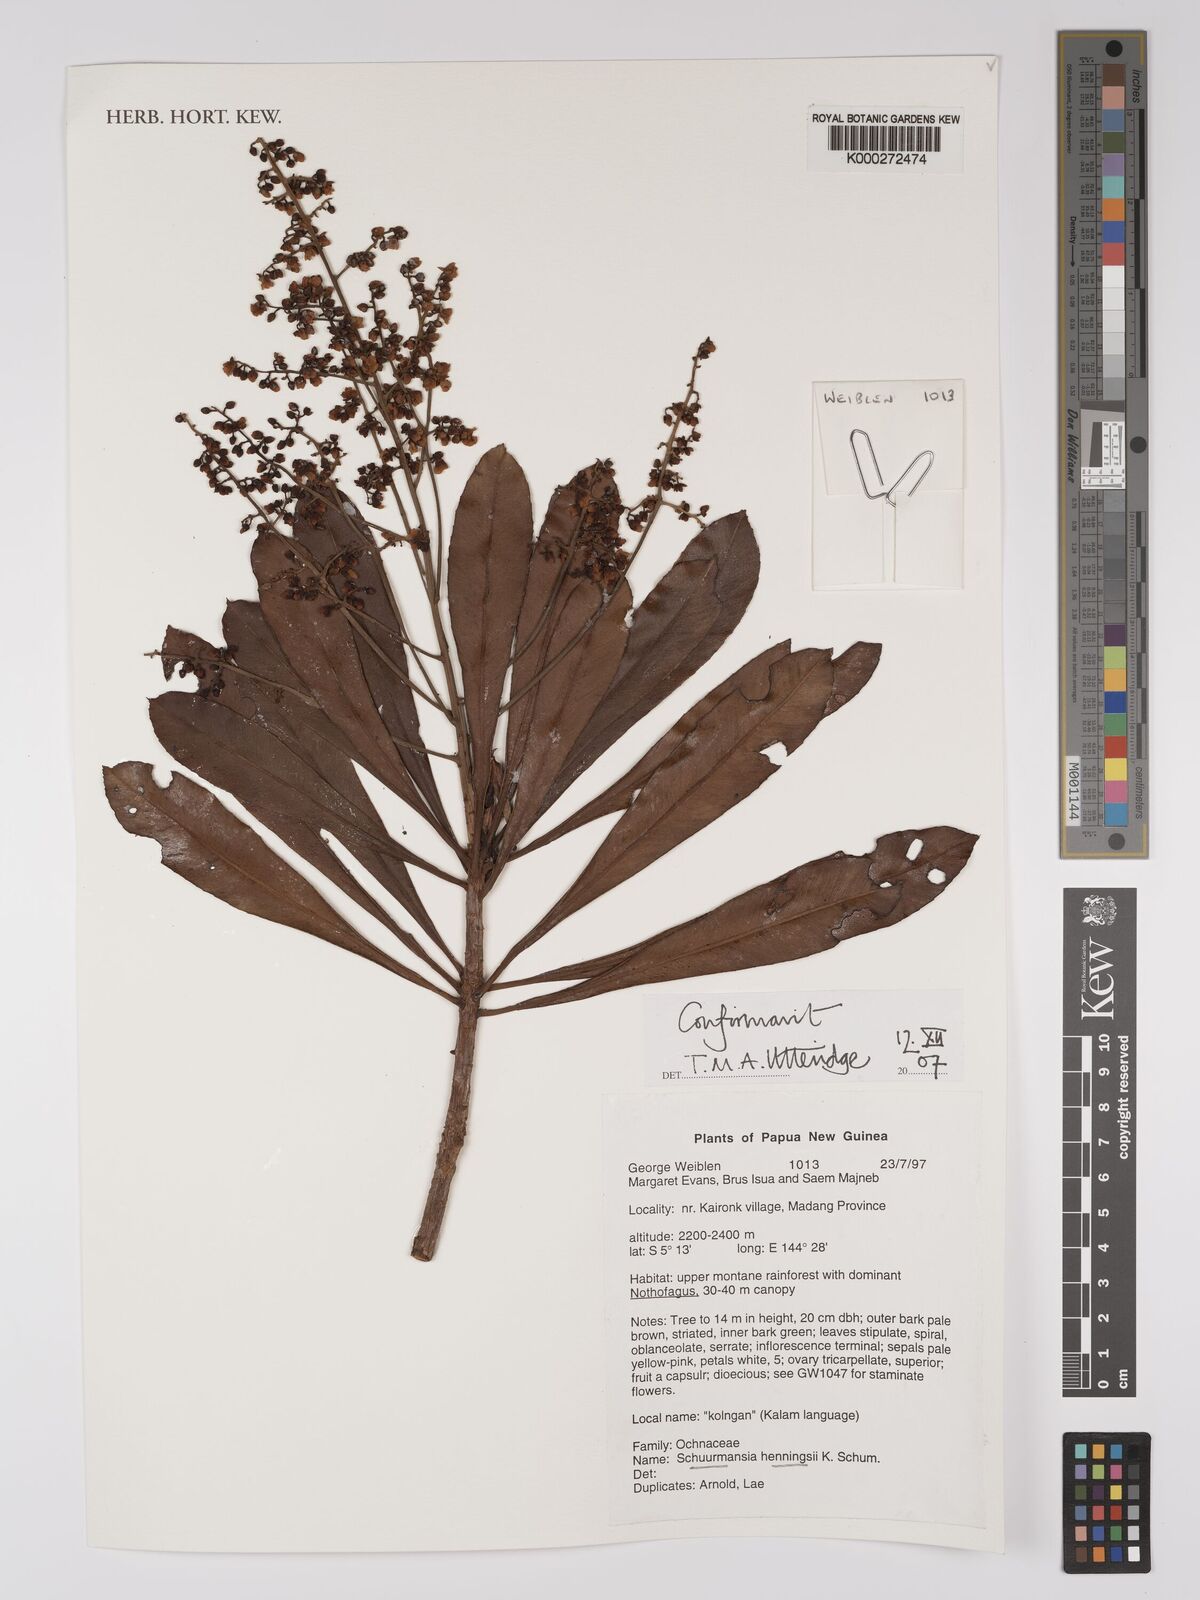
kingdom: Plantae
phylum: Tracheophyta
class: Magnoliopsida
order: Malpighiales
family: Ochnaceae
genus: Schuurmansia
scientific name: Schuurmansia henningsii
